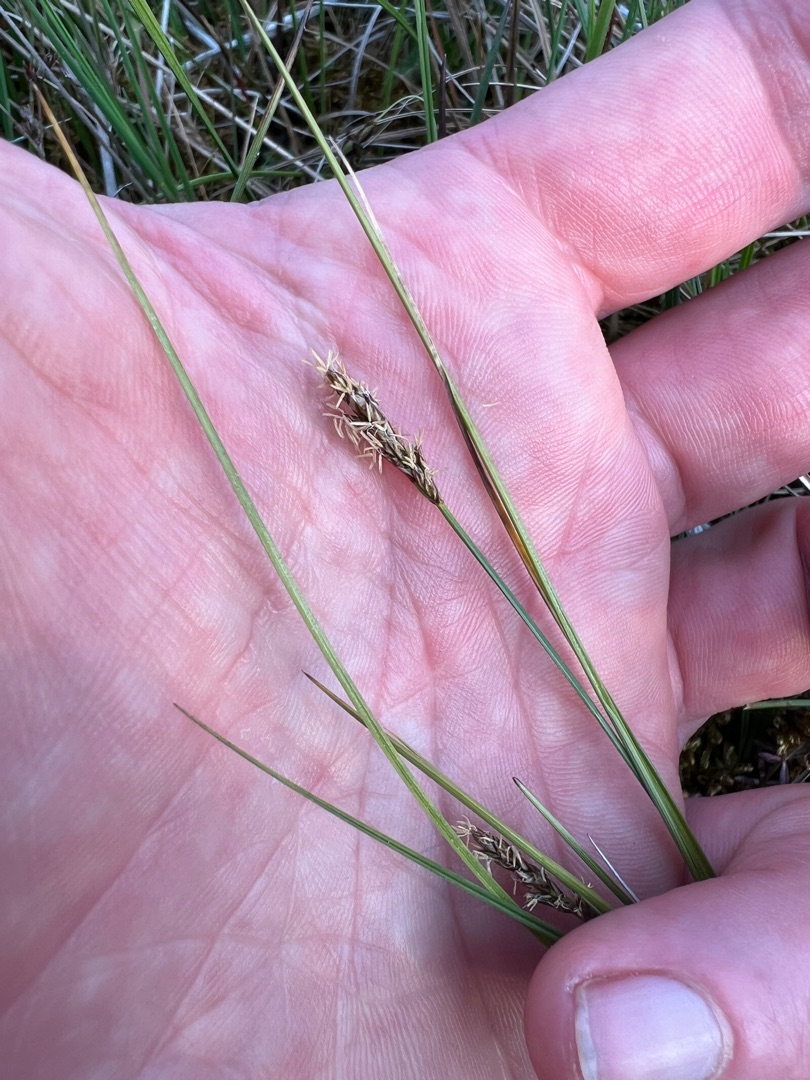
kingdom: Plantae
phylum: Tracheophyta
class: Liliopsida
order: Poales
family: Cyperaceae
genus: Carex
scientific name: Carex diandra
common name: Trindstænglet star
